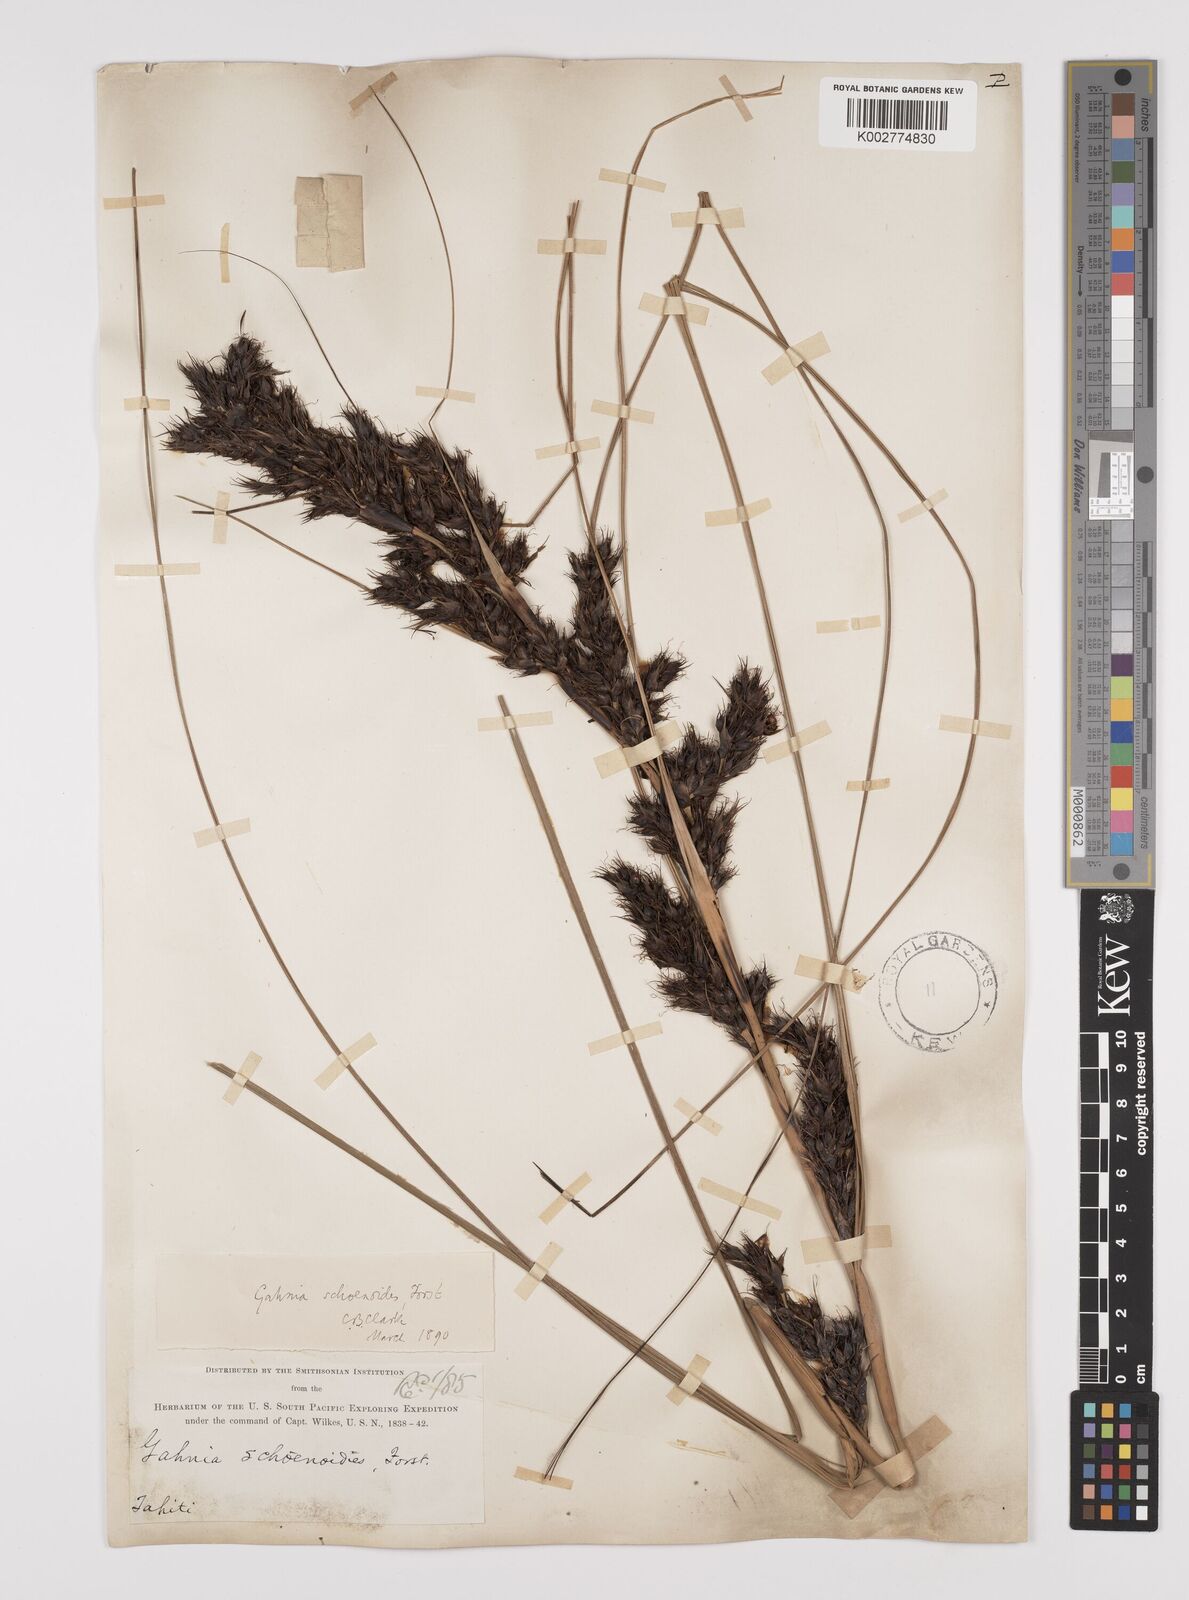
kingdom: Plantae
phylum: Tracheophyta
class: Liliopsida
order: Poales
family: Cyperaceae
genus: Gahnia
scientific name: Gahnia schoenoides
